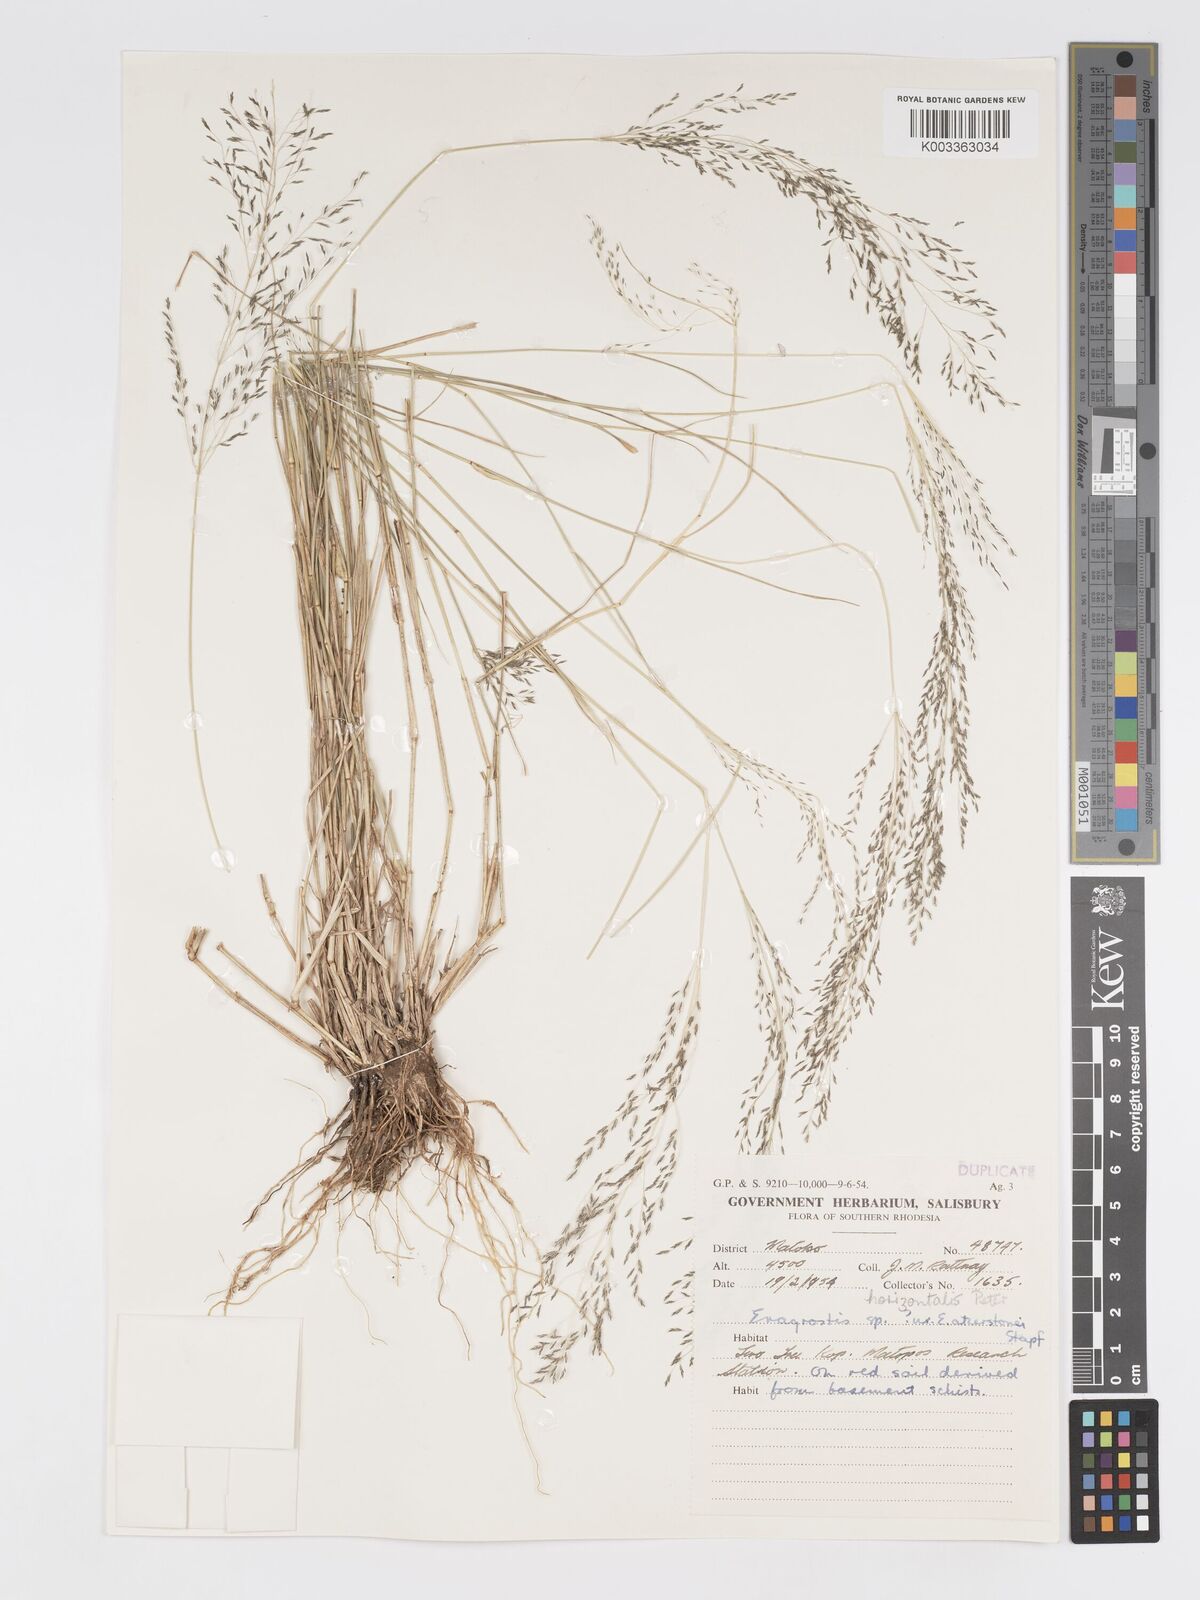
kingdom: Plantae
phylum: Tracheophyta
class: Liliopsida
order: Poales
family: Poaceae
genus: Eragrostis
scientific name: Eragrostis cylindriflora
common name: Cylinderflower lovegrass
